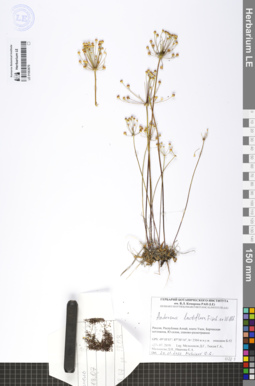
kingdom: Plantae
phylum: Tracheophyta
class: Magnoliopsida
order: Ericales
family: Primulaceae
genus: Androsace
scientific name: Androsace lactiflora
